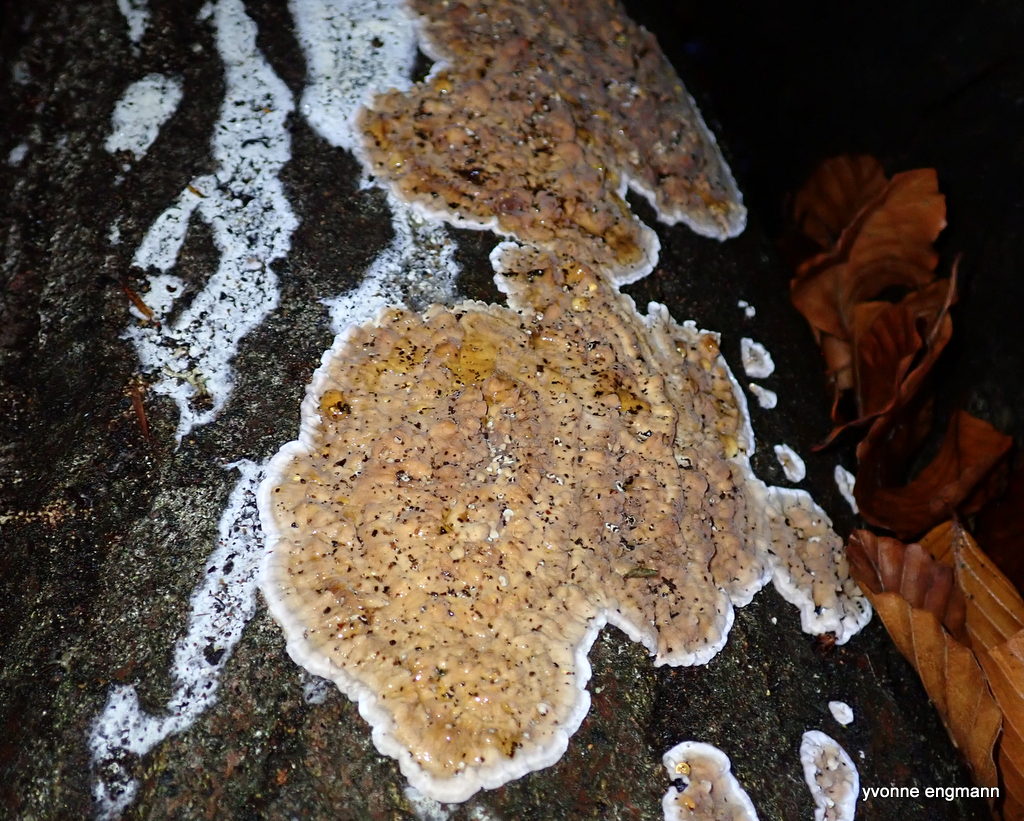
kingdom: Fungi
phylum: Basidiomycota
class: Agaricomycetes
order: Corticiales
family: Corticiaceae
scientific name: Corticiaceae
